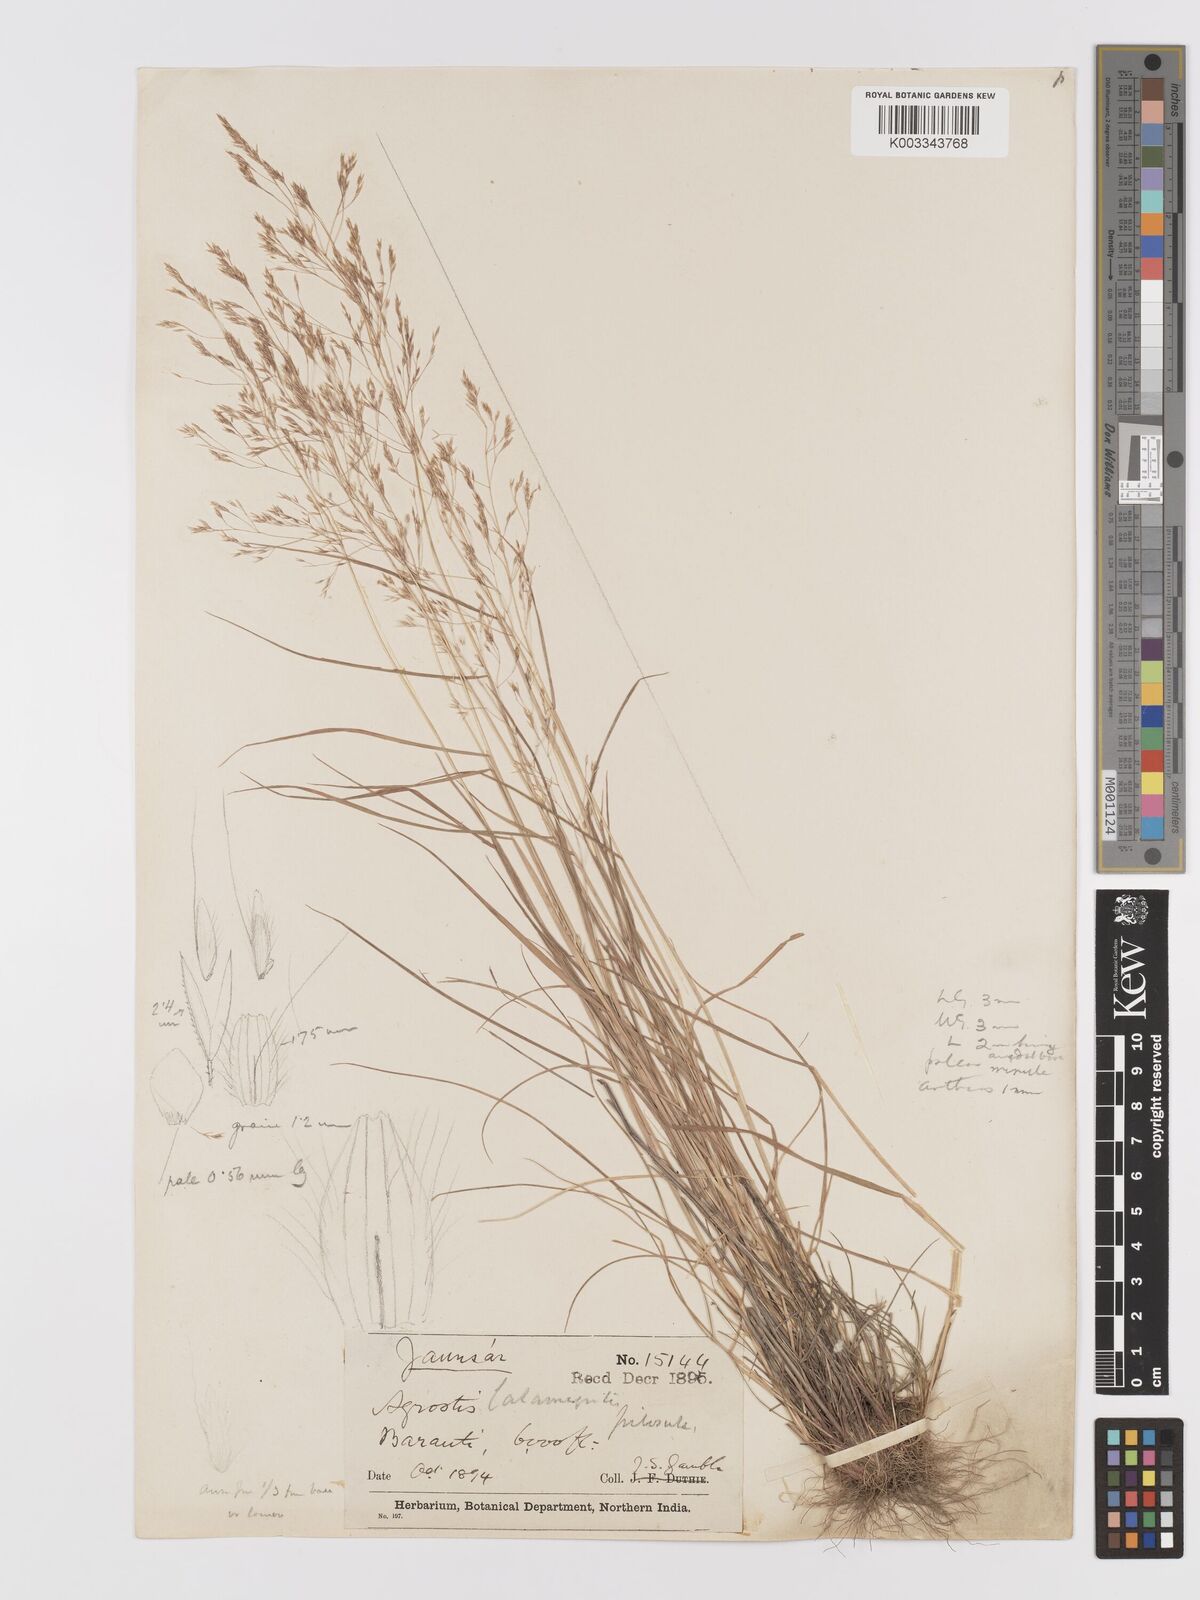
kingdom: Plantae
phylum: Tracheophyta
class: Liliopsida
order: Poales
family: Poaceae
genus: Agrostis
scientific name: Agrostis pilosula
